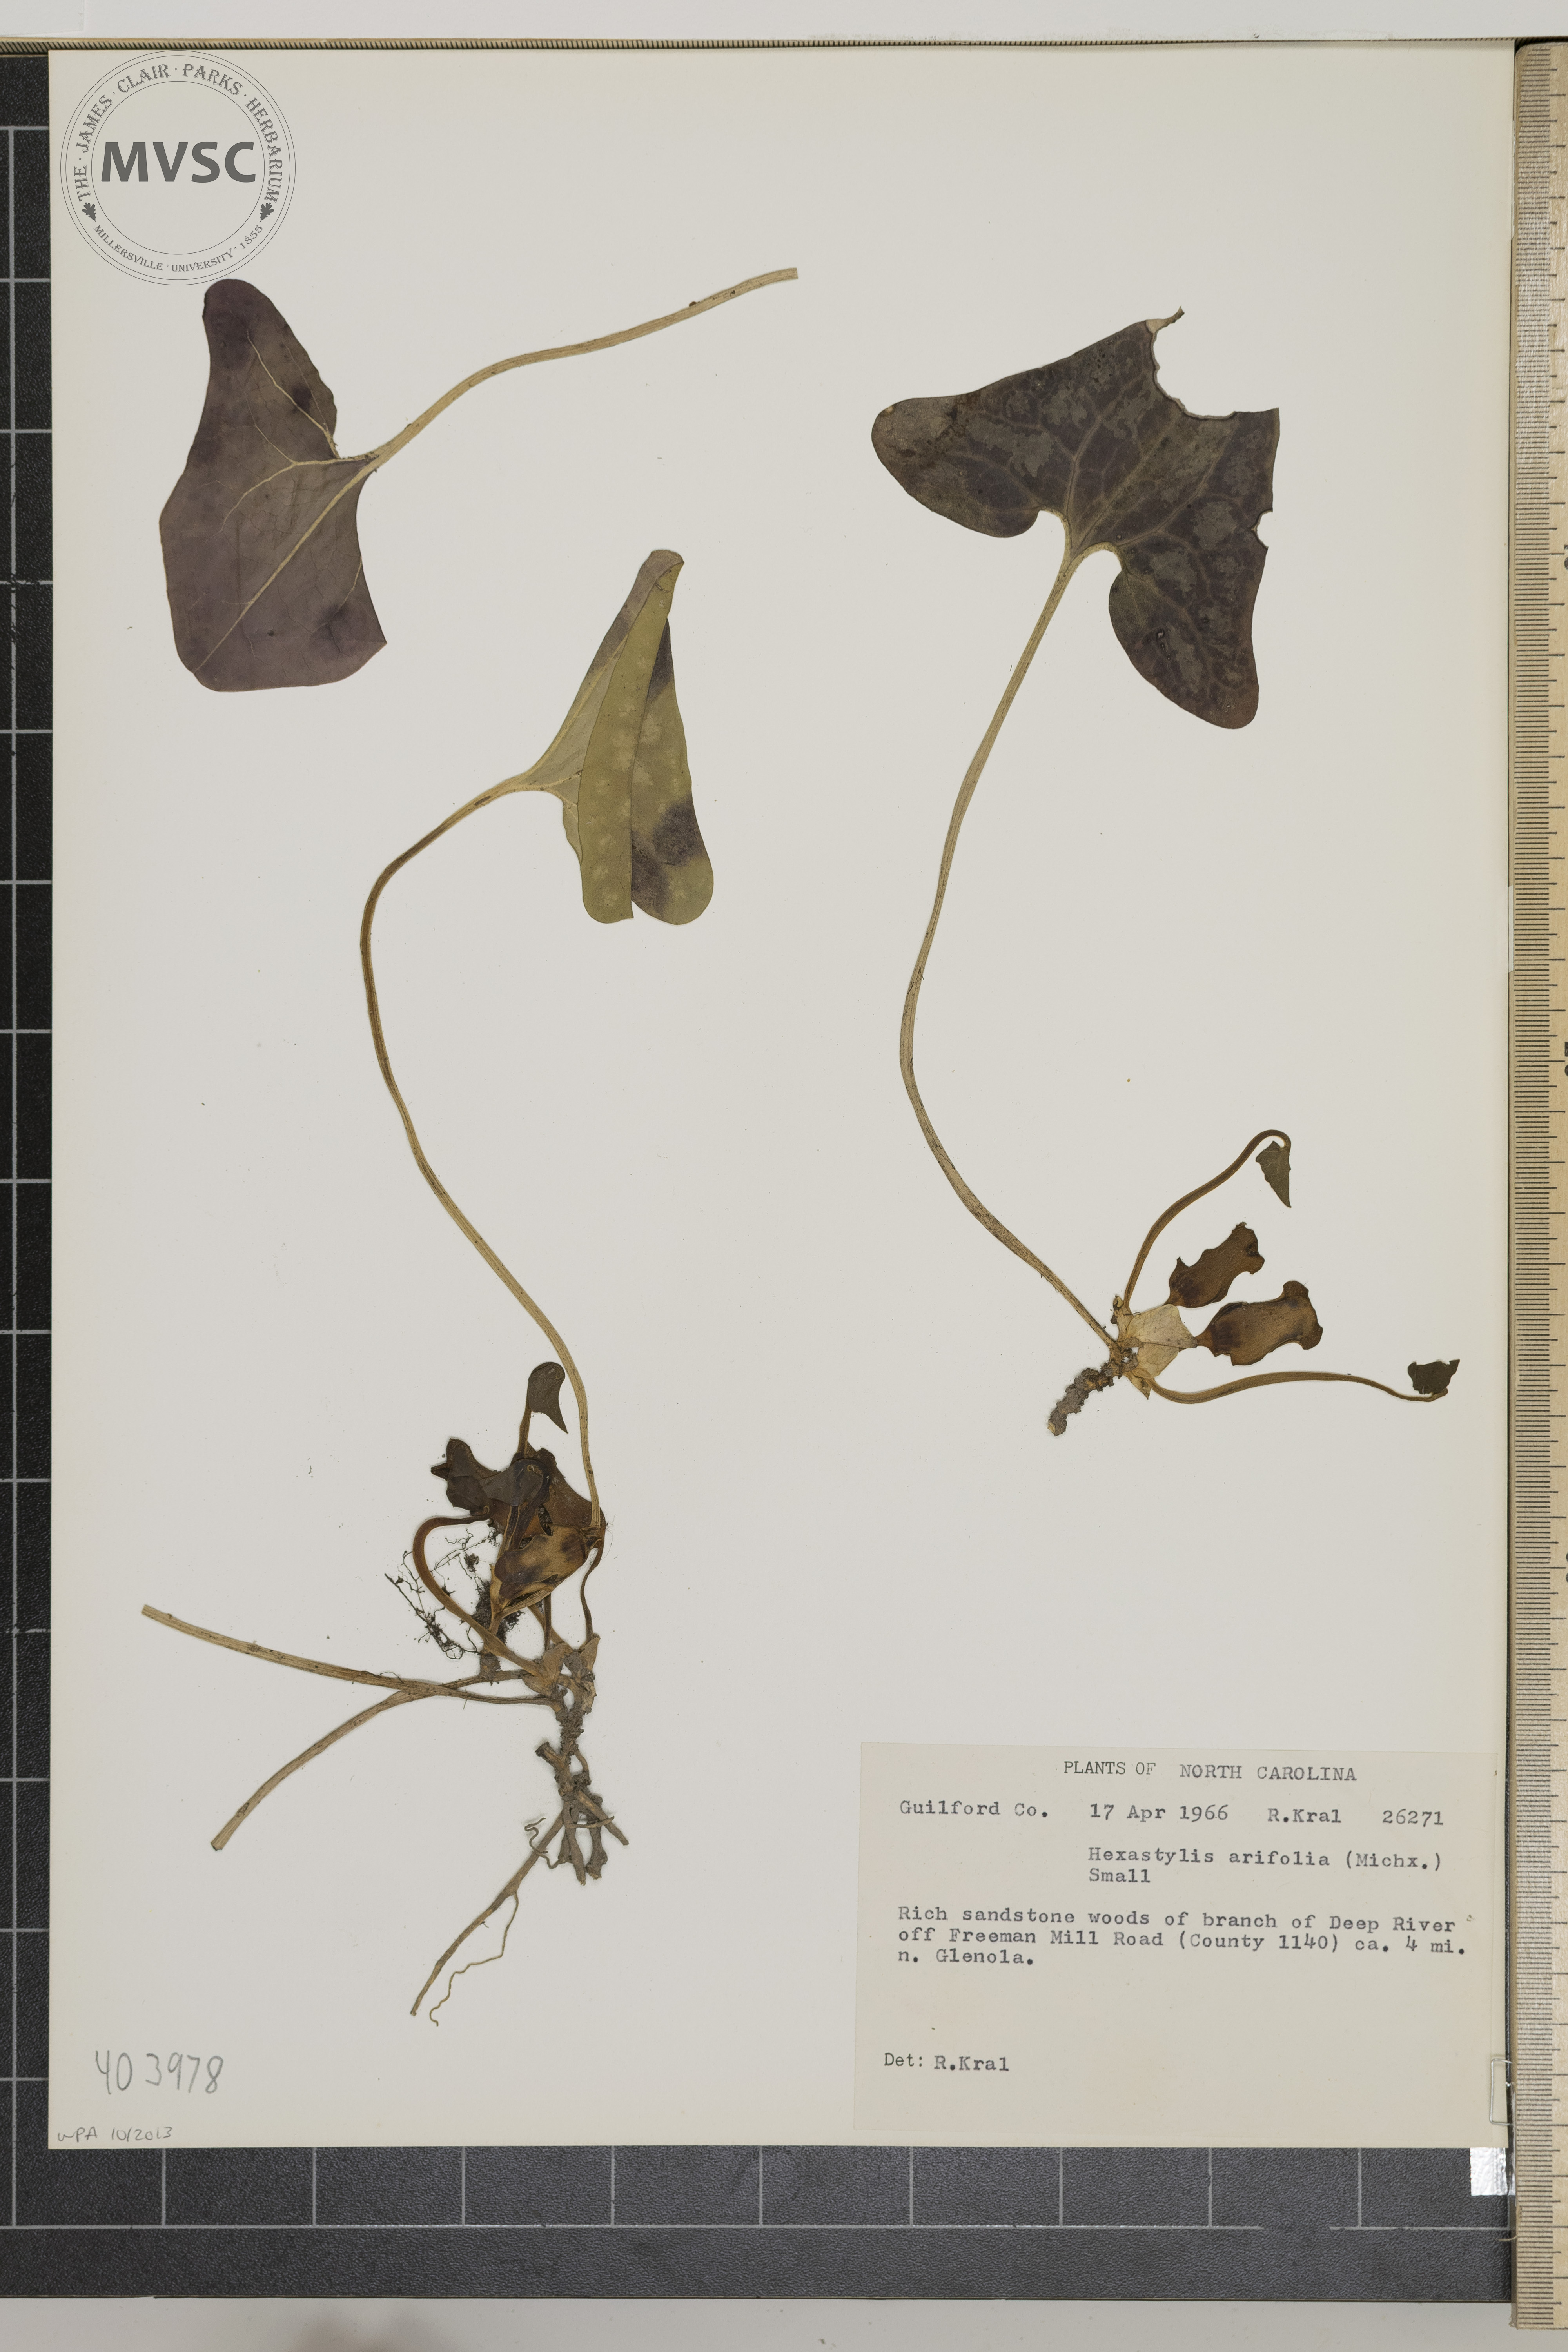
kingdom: Plantae
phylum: Tracheophyta
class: Magnoliopsida
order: Piperales
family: Aristolochiaceae
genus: Hexastylis
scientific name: Hexastylis arifolia
